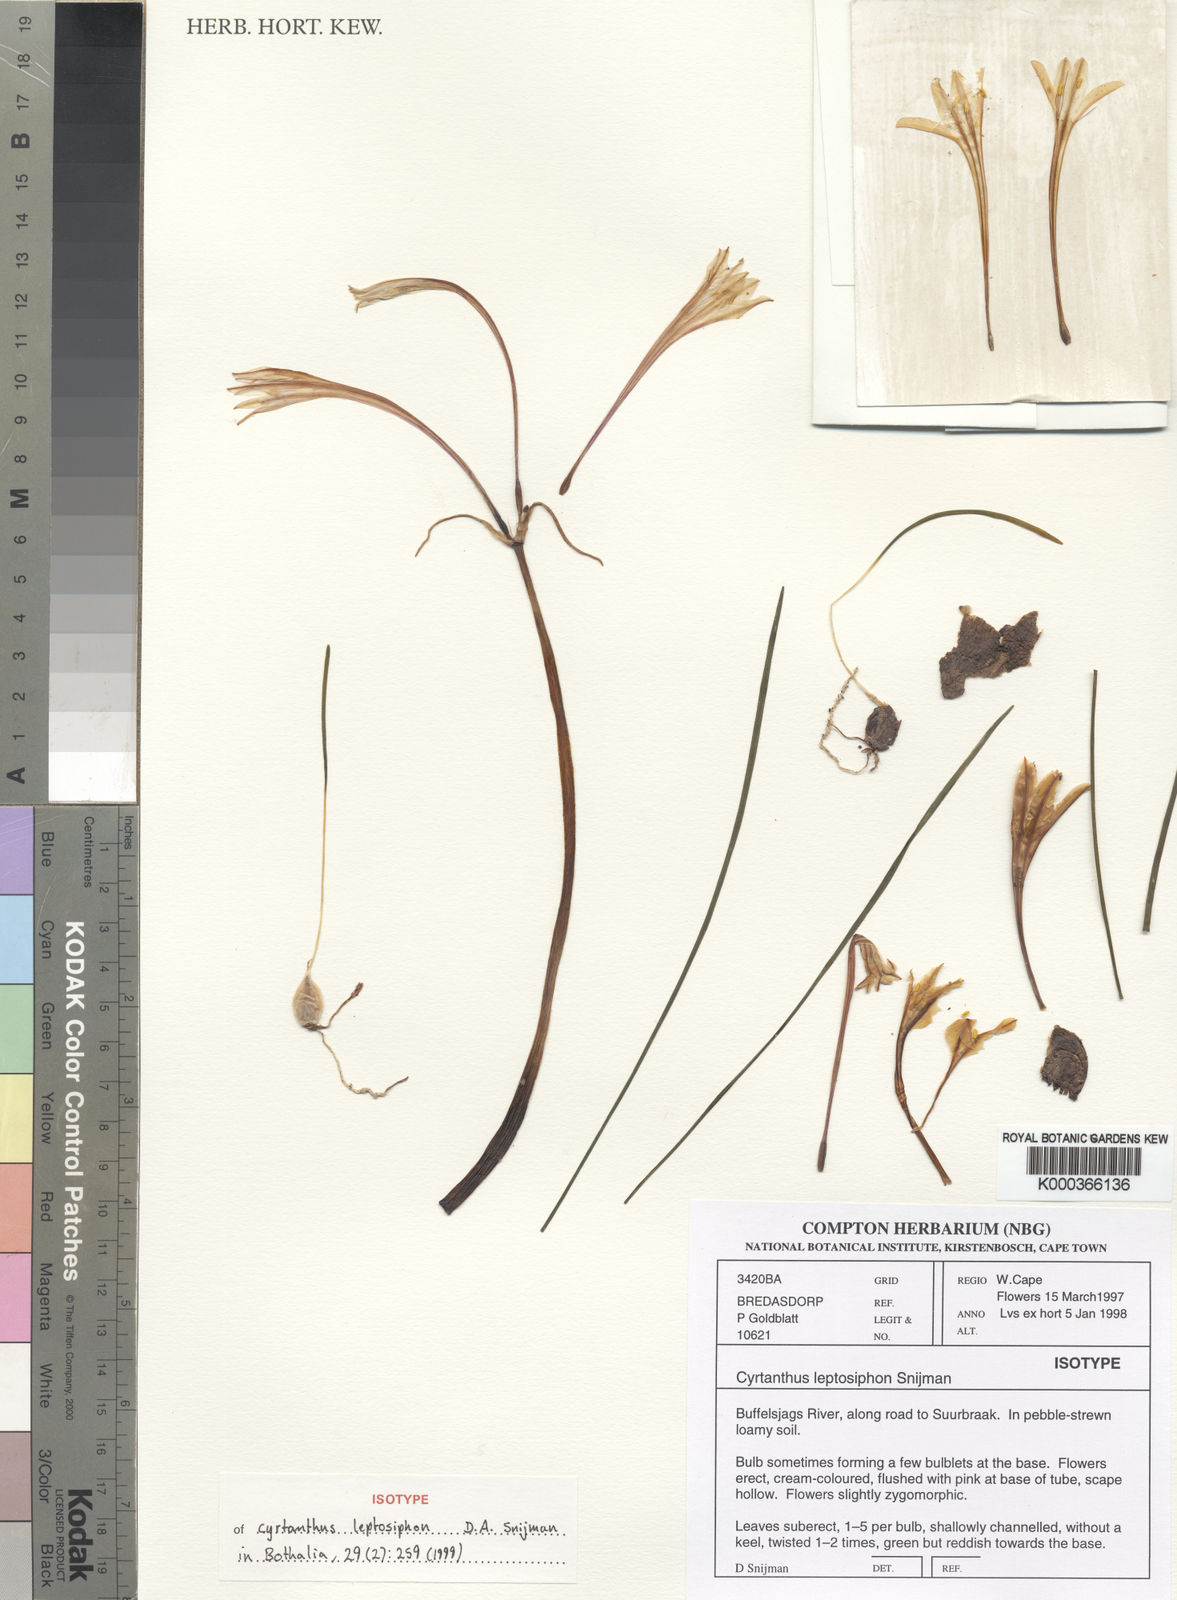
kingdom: Plantae
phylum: Tracheophyta
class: Liliopsida
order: Asparagales
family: Amaryllidaceae
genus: Cyrtanthus
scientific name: Cyrtanthus leptosiphon
